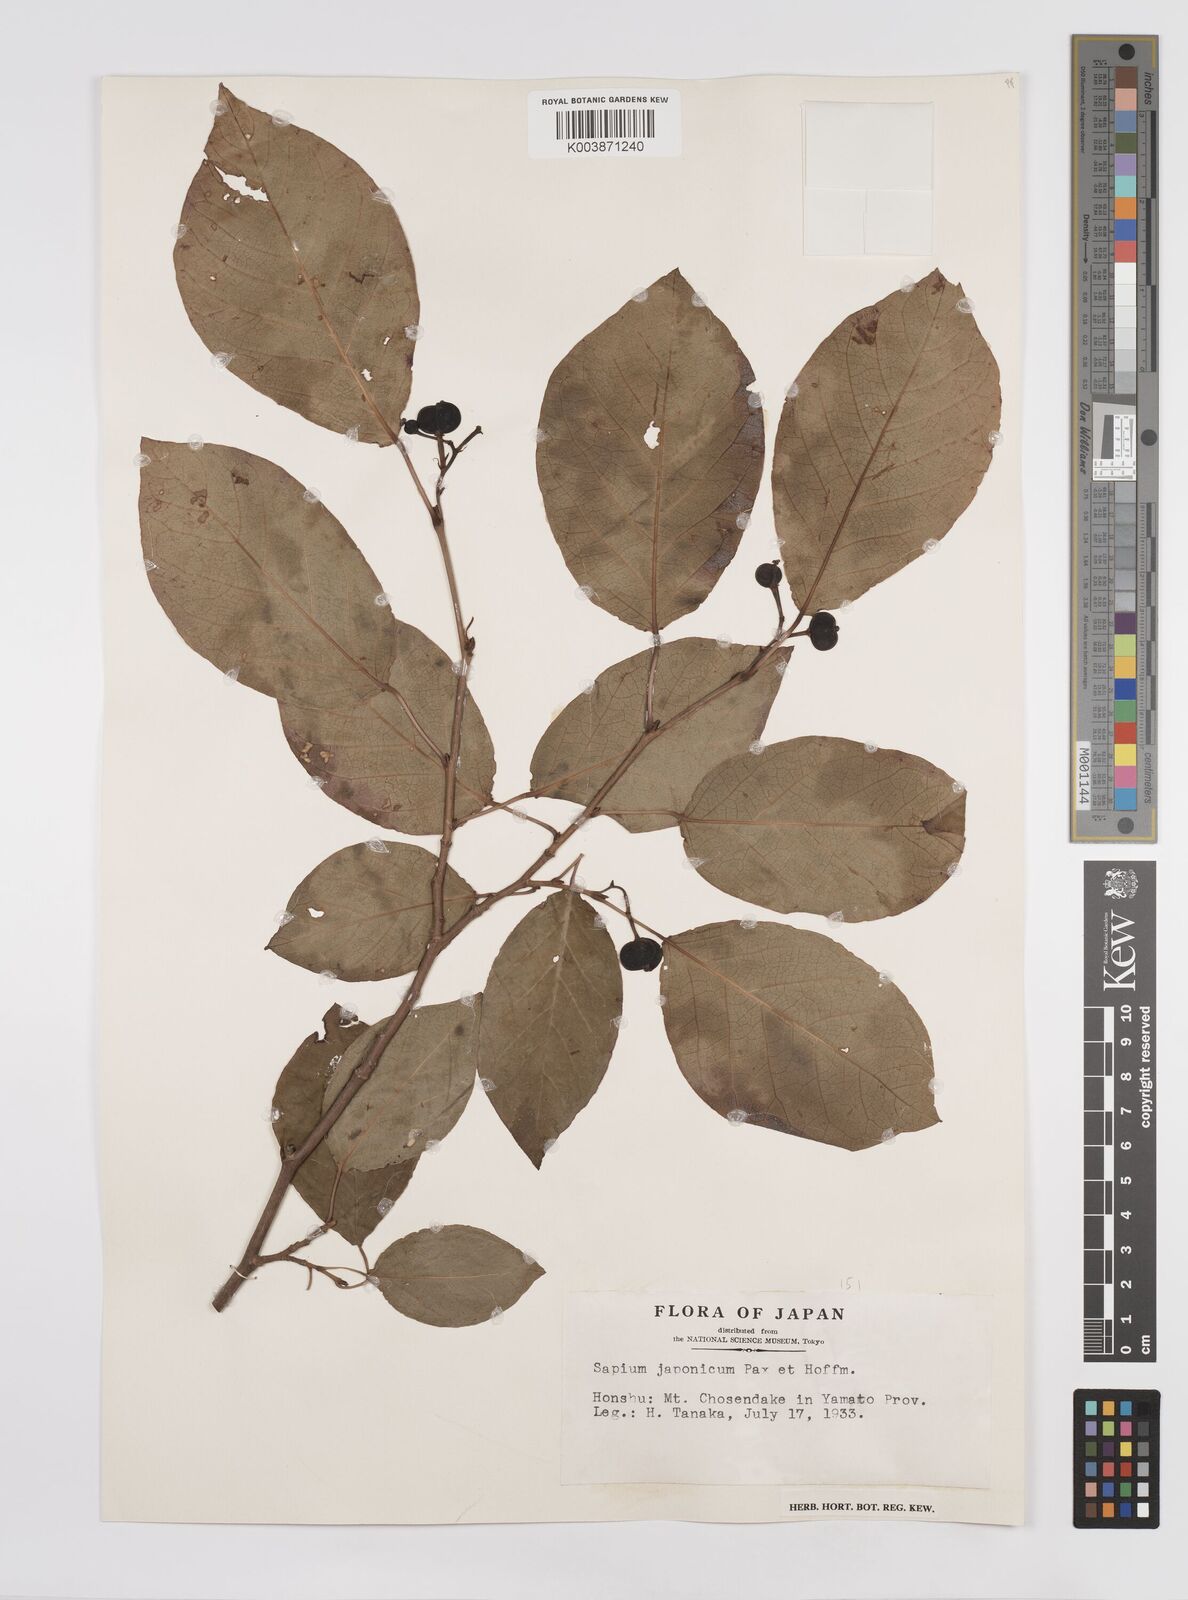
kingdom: Plantae
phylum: Tracheophyta
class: Magnoliopsida
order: Malpighiales
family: Euphorbiaceae
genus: Neoshirakia
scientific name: Neoshirakia japonica
